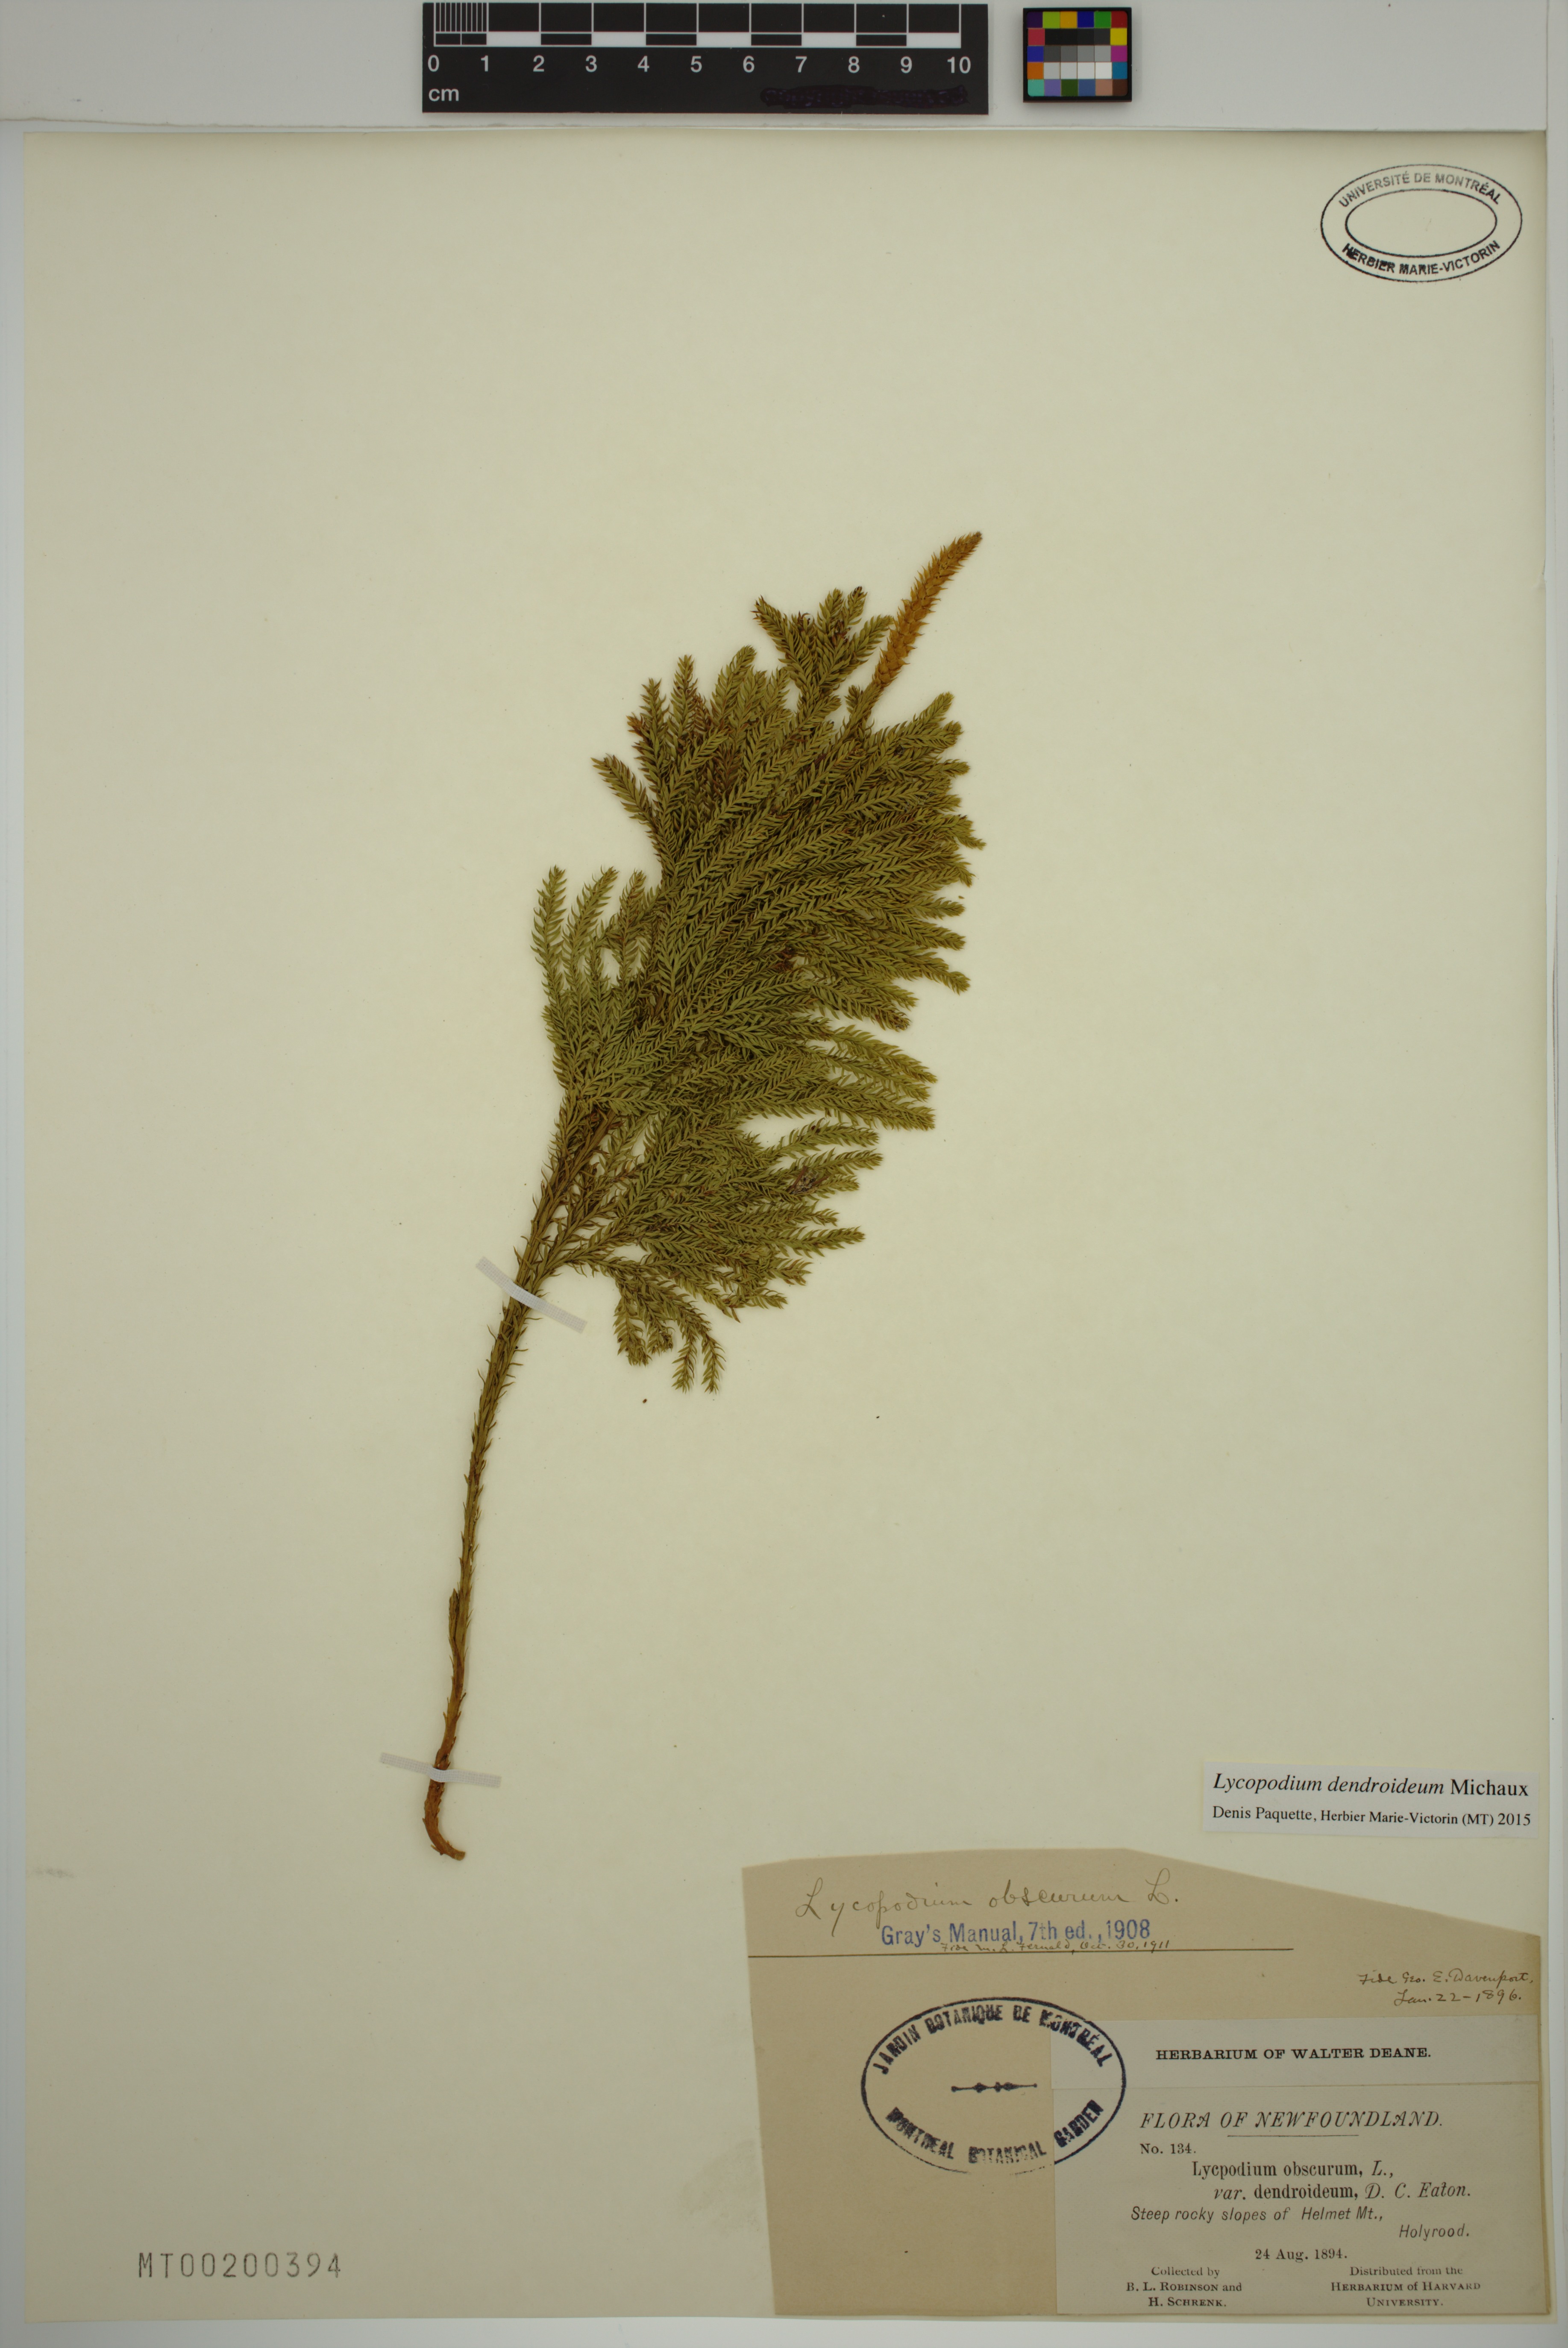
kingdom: Plantae
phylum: Tracheophyta
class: Lycopodiopsida
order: Lycopodiales
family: Lycopodiaceae
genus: Dendrolycopodium
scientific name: Dendrolycopodium dendroideum
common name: Northern tree-clubmoss
